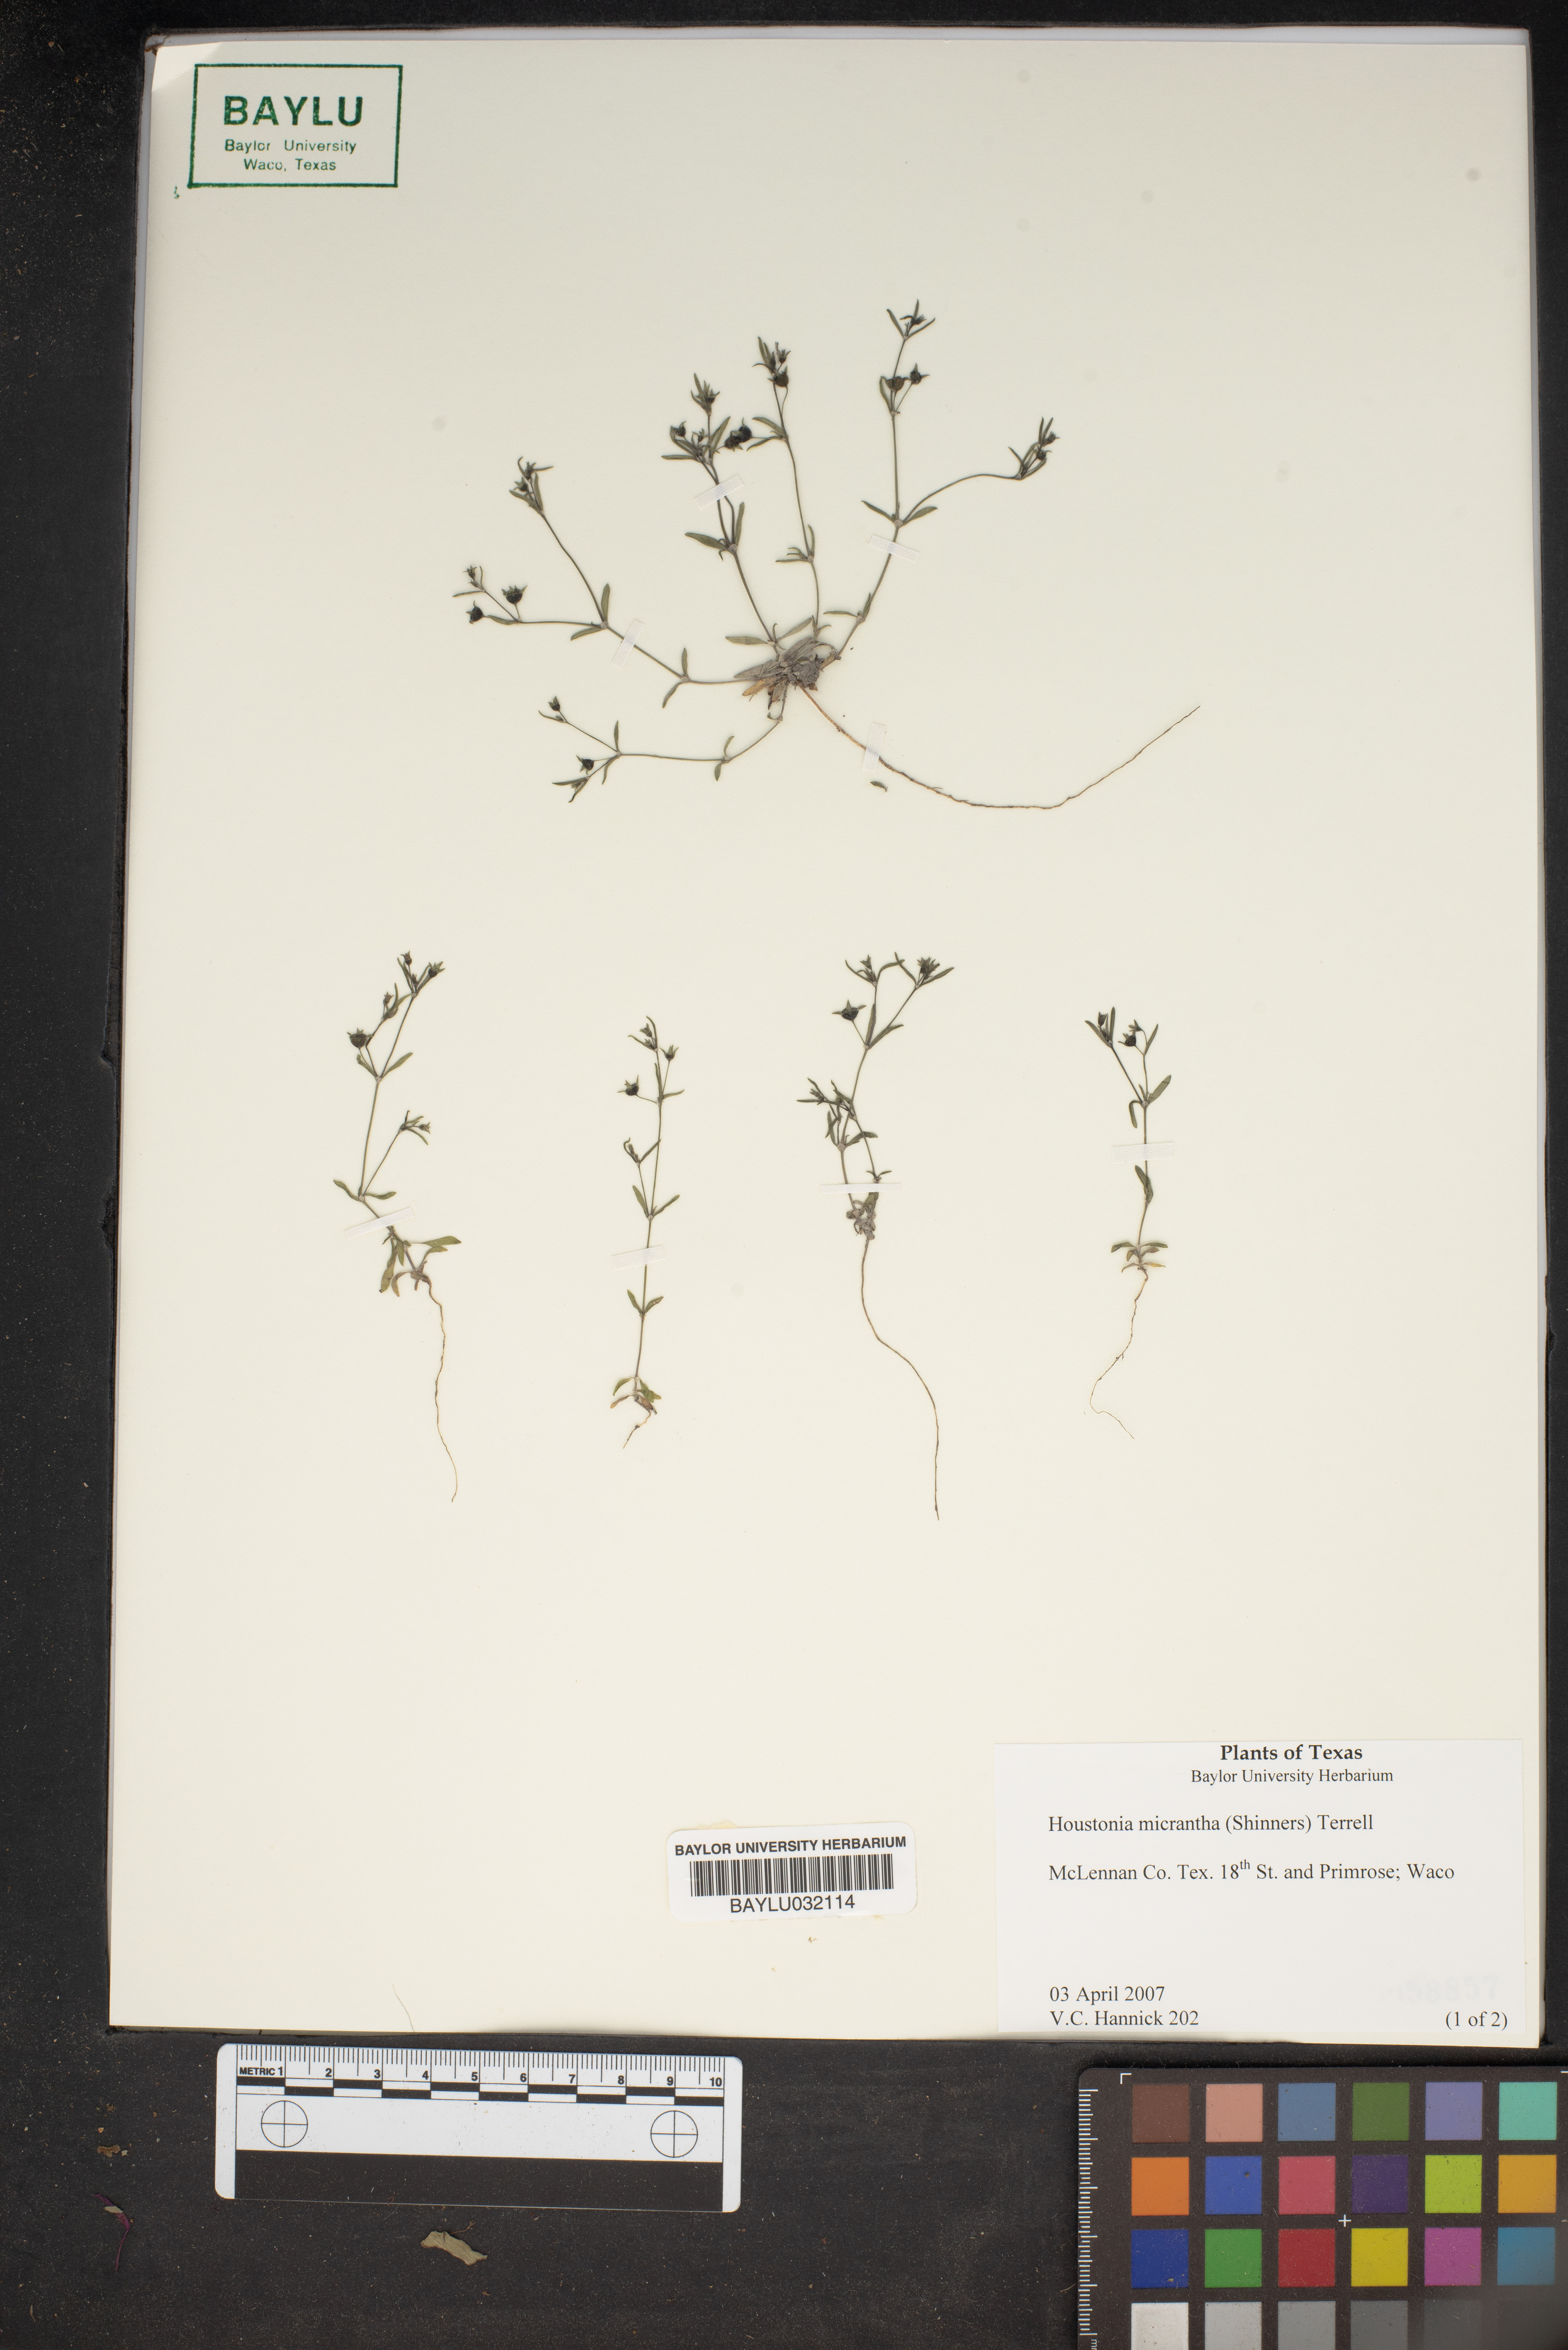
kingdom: Plantae
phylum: Tracheophyta
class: Magnoliopsida
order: Gentianales
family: Rubiaceae
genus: Houstonia
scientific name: Houstonia micrantha
